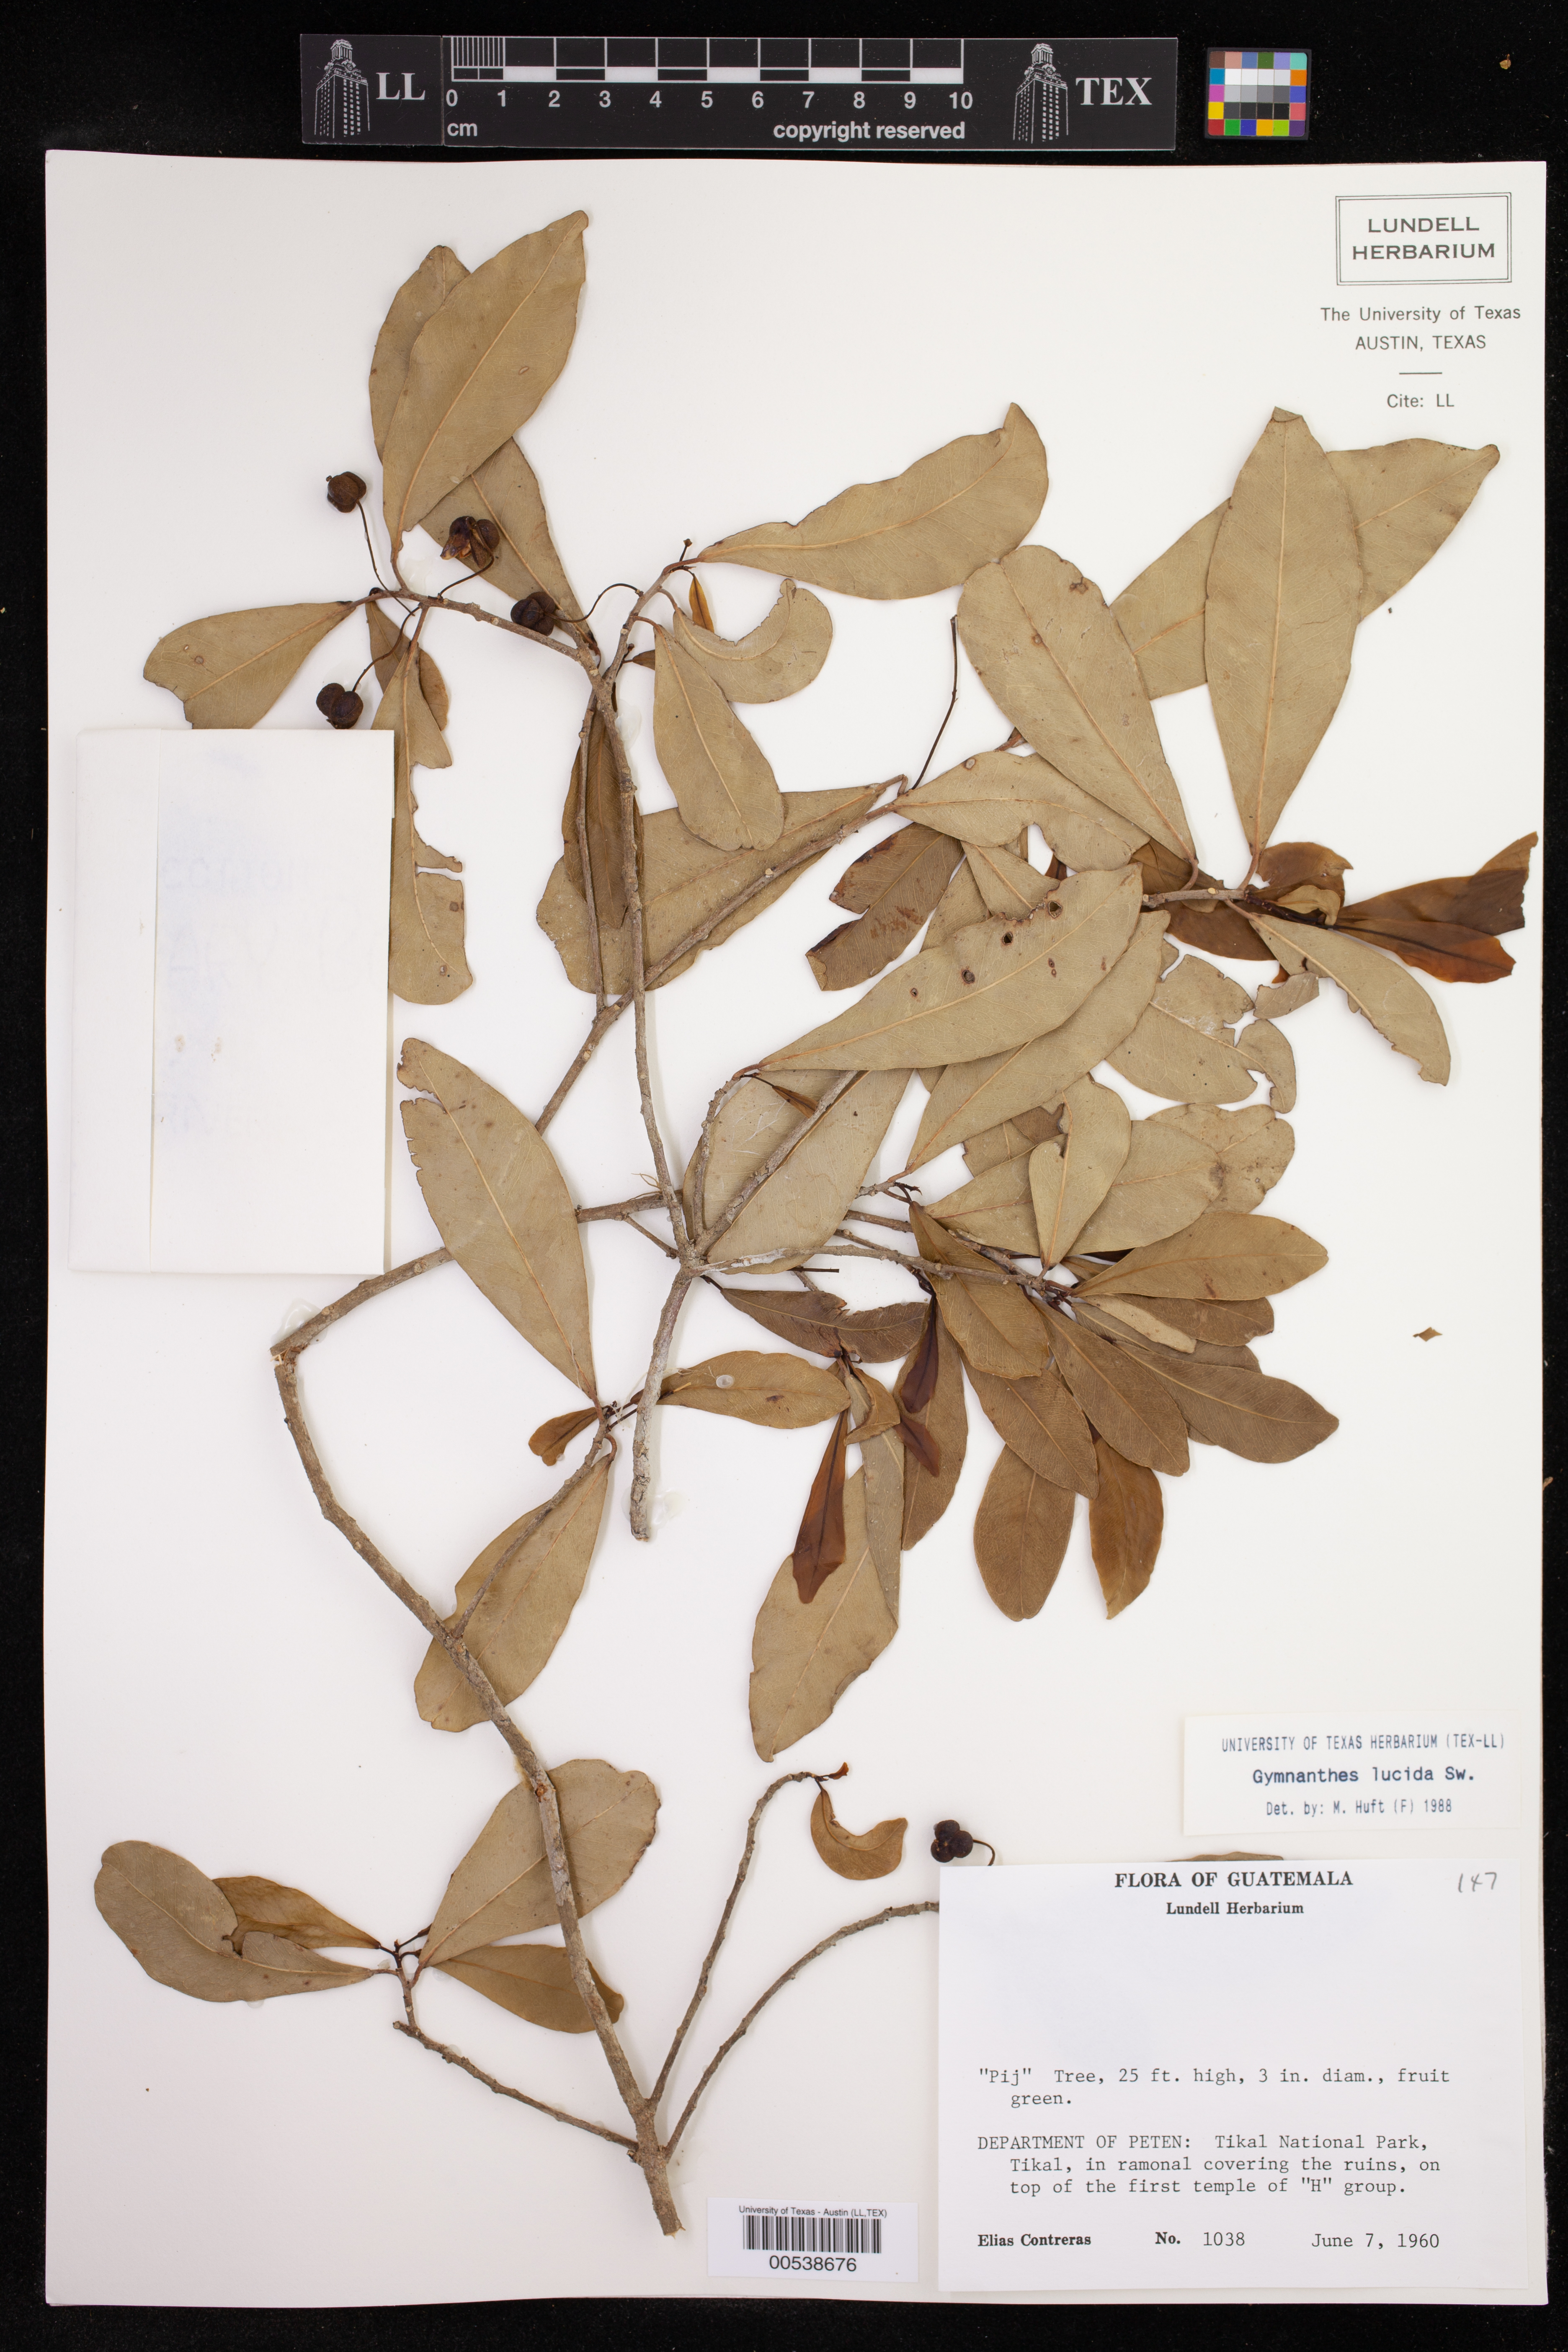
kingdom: Plantae
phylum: Tracheophyta
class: Magnoliopsida
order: Malpighiales
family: Euphorbiaceae
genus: Gymnanthes
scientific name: Gymnanthes lucida
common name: Oysterwood
